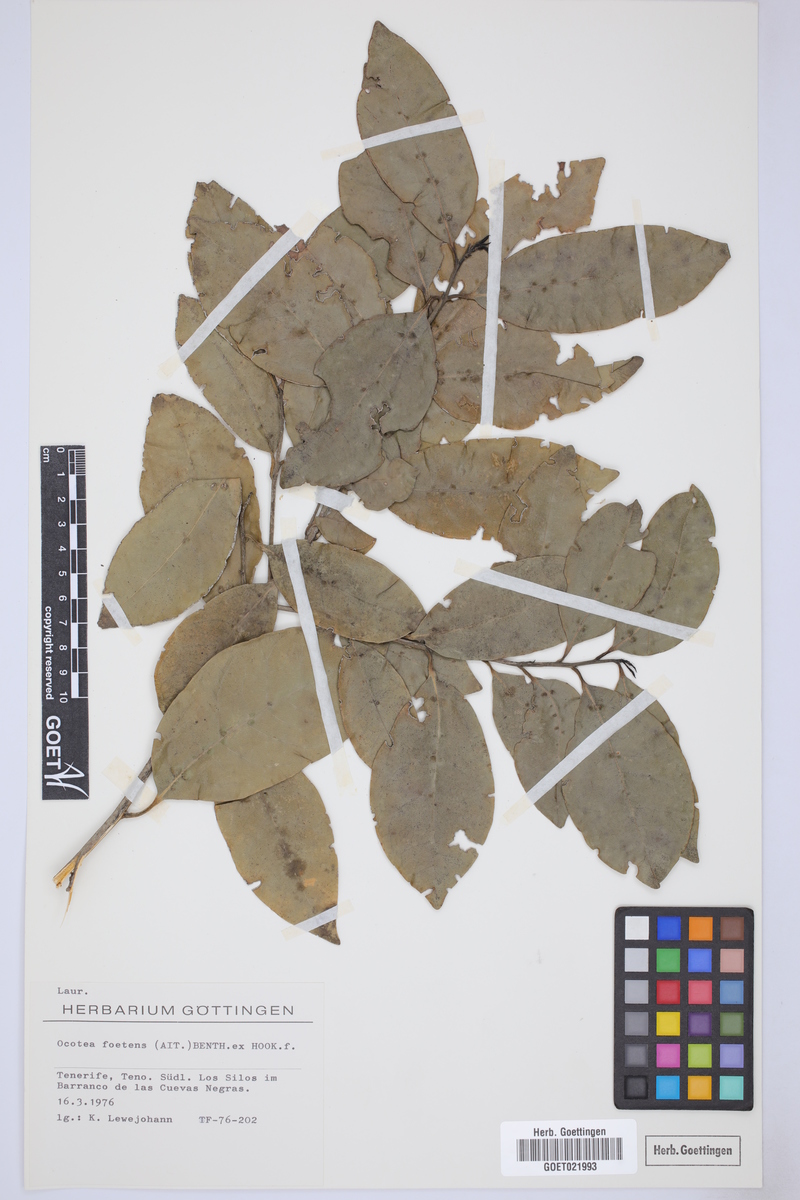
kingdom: Plantae
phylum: Tracheophyta
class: Magnoliopsida
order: Laurales
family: Lauraceae
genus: Mespilodaphne
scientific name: Mespilodaphne foetens
